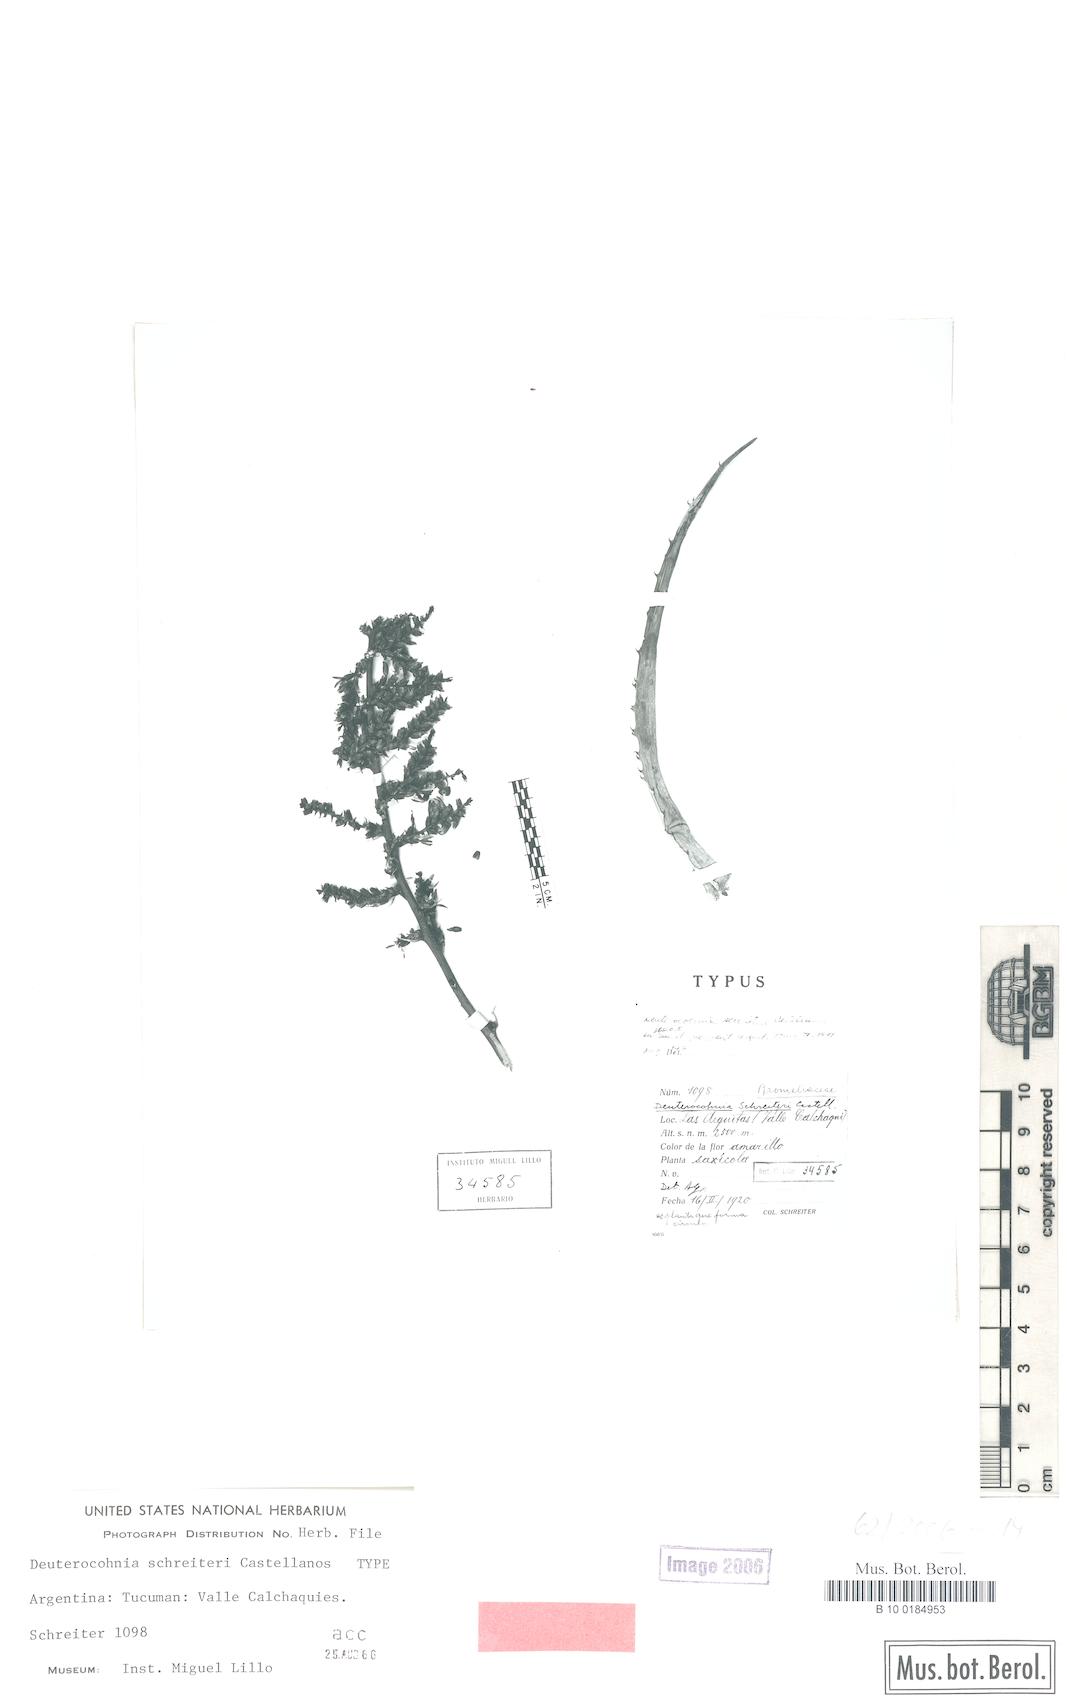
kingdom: Plantae
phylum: Tracheophyta
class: Liliopsida
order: Poales
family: Bromeliaceae
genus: Deuterocohnia
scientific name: Deuterocohnia schreiteri
